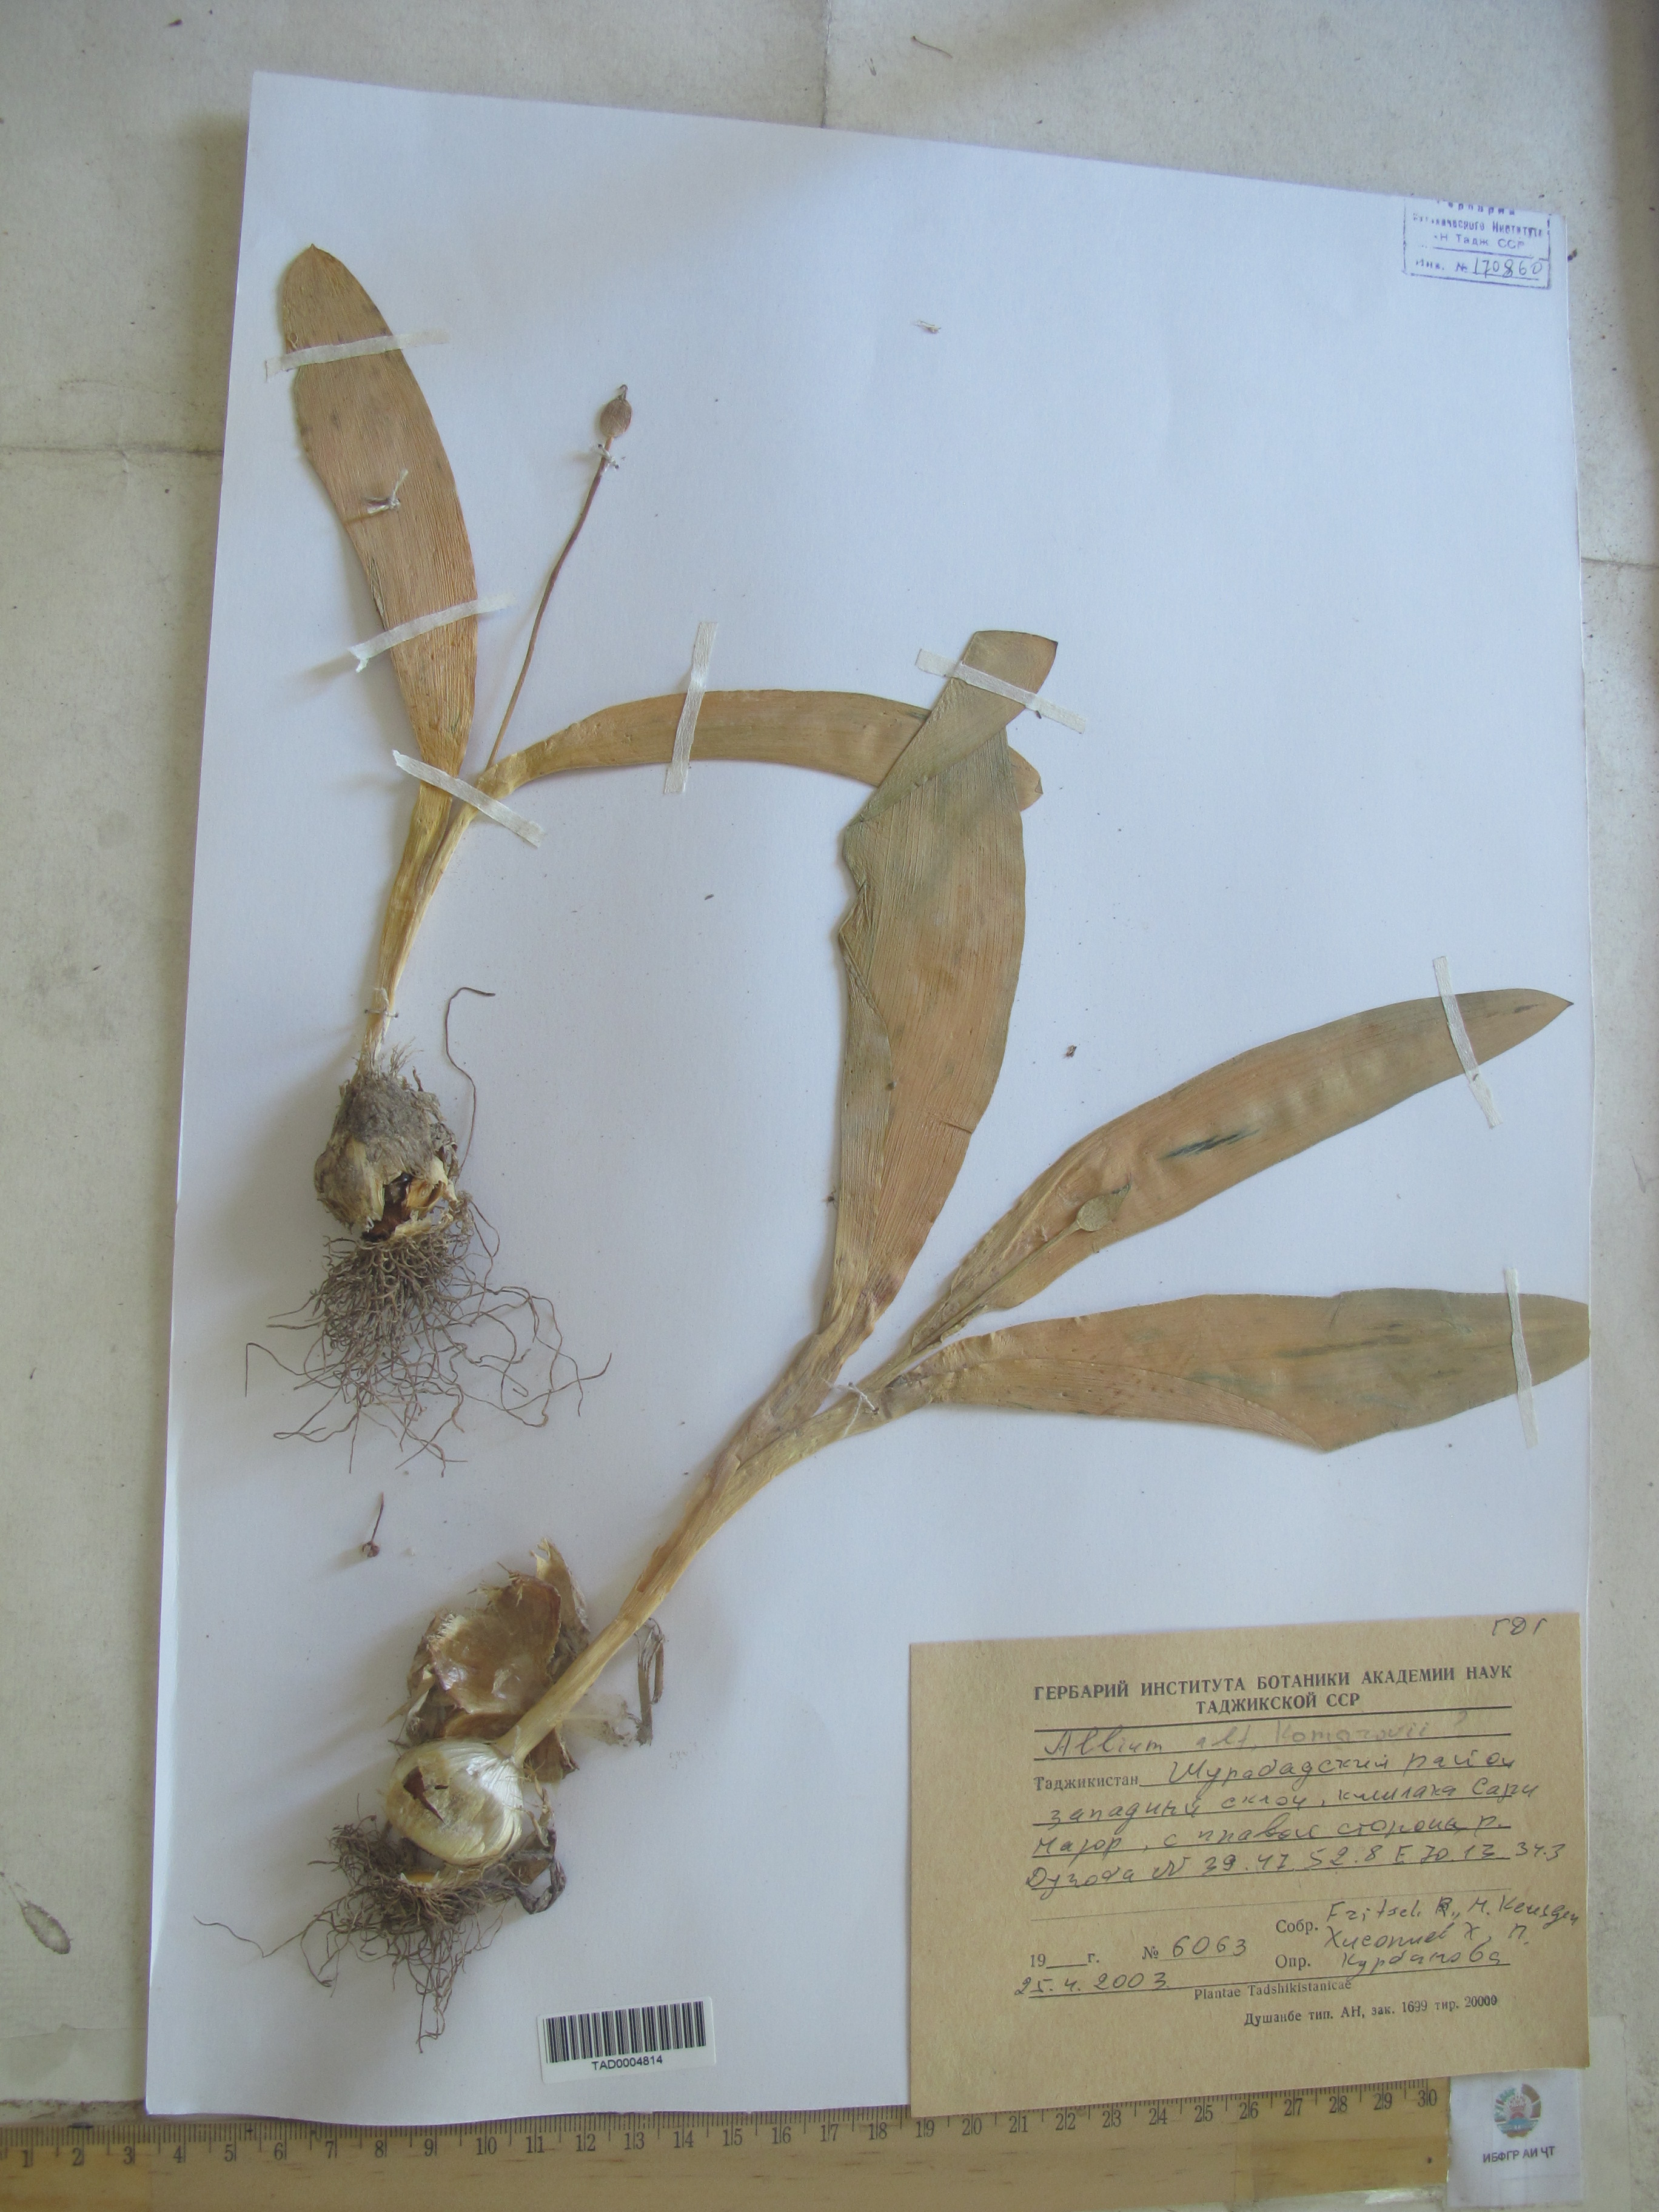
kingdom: Plantae
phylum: Tracheophyta
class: Liliopsida
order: Asparagales
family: Amaryllidaceae
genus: Allium
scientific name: Allium
